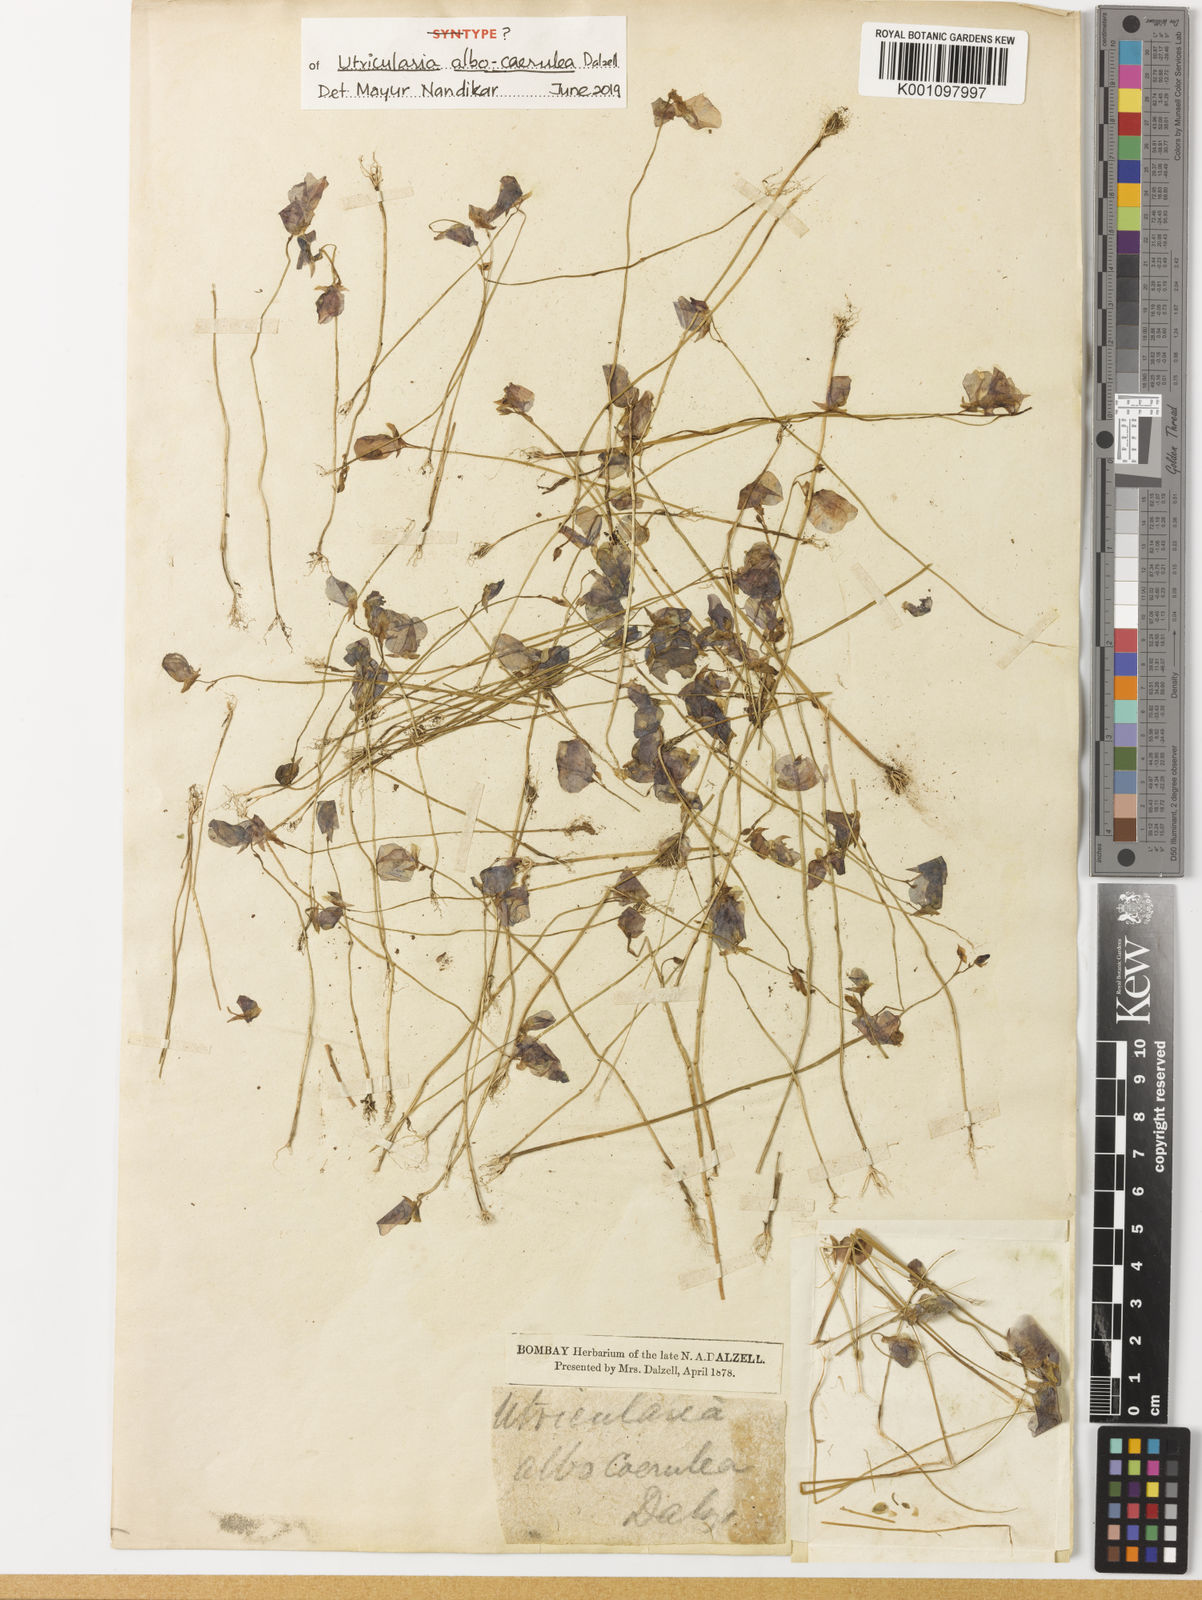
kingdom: Plantae
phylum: Tracheophyta
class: Magnoliopsida
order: Lamiales
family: Lentibulariaceae
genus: Utricularia
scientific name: Utricularia
